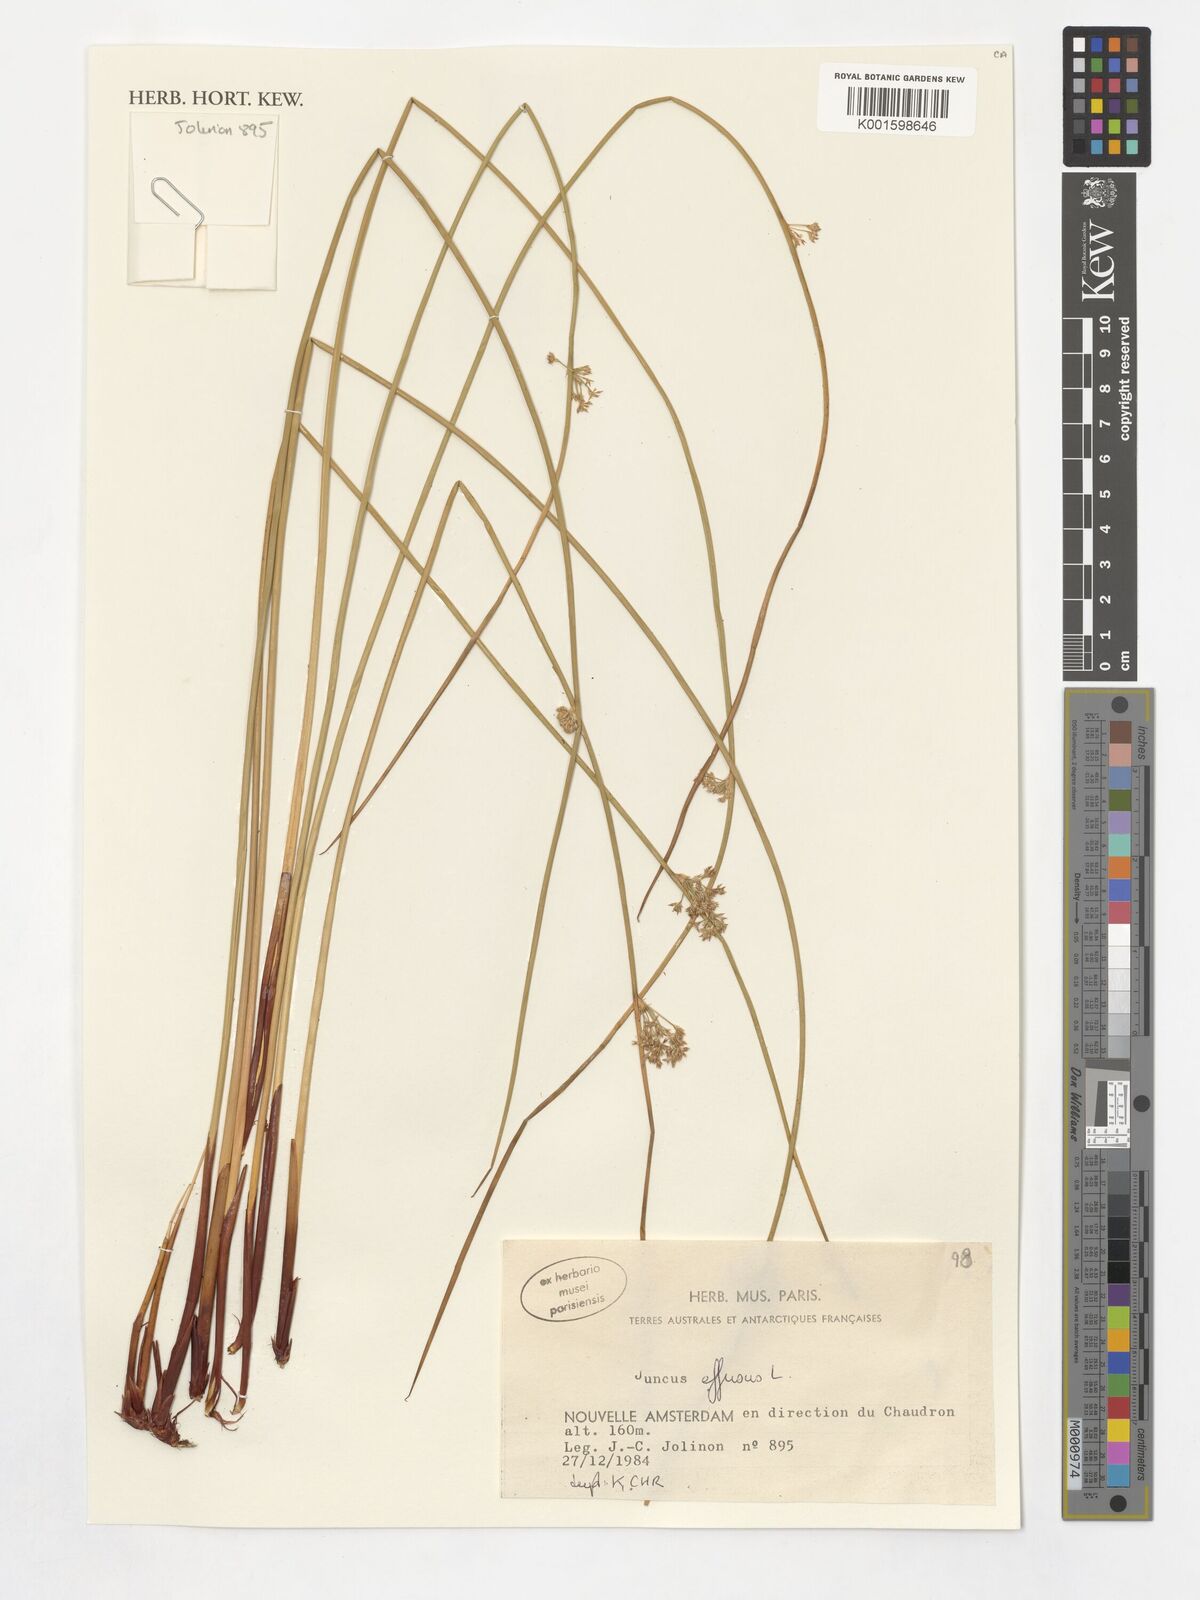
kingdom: Plantae
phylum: Tracheophyta
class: Liliopsida
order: Poales
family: Juncaceae
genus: Juncus
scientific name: Juncus effusus
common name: Soft rush
